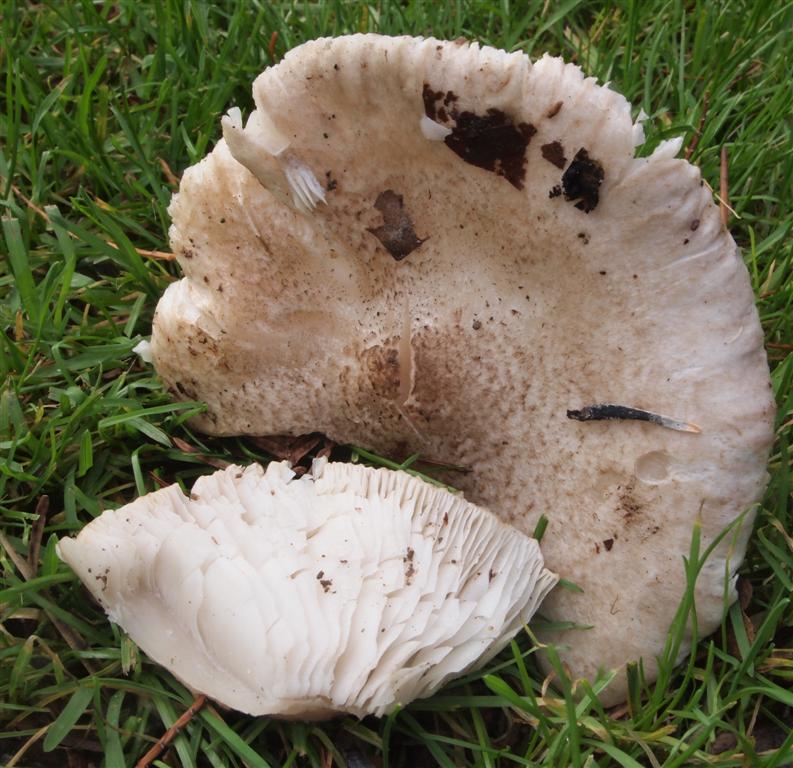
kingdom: Fungi
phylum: Basidiomycota
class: Agaricomycetes
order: Agaricales
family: Tricholomataceae
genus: Tricholoma
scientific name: Tricholoma scalpturatum
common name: gulplettet ridderhat
